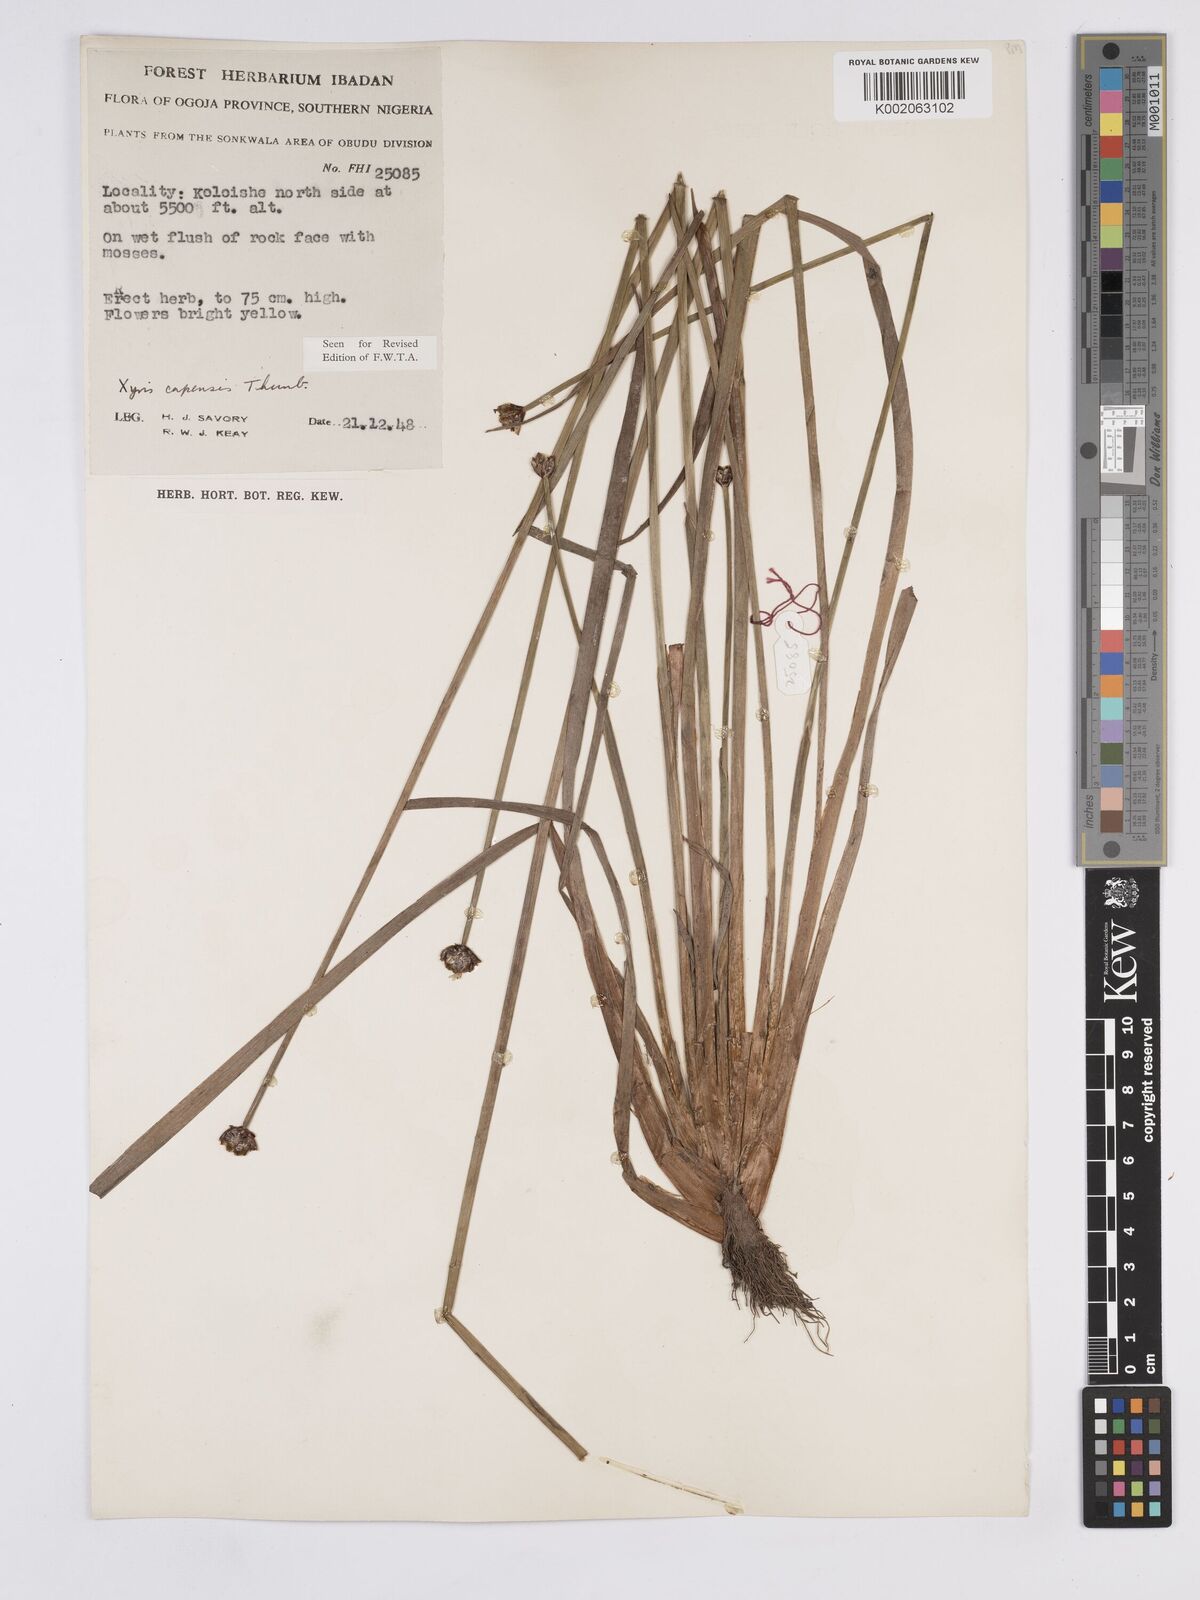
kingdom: Plantae
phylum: Tracheophyta
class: Liliopsida
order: Poales
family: Xyridaceae
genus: Xyris
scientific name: Xyris capensis
